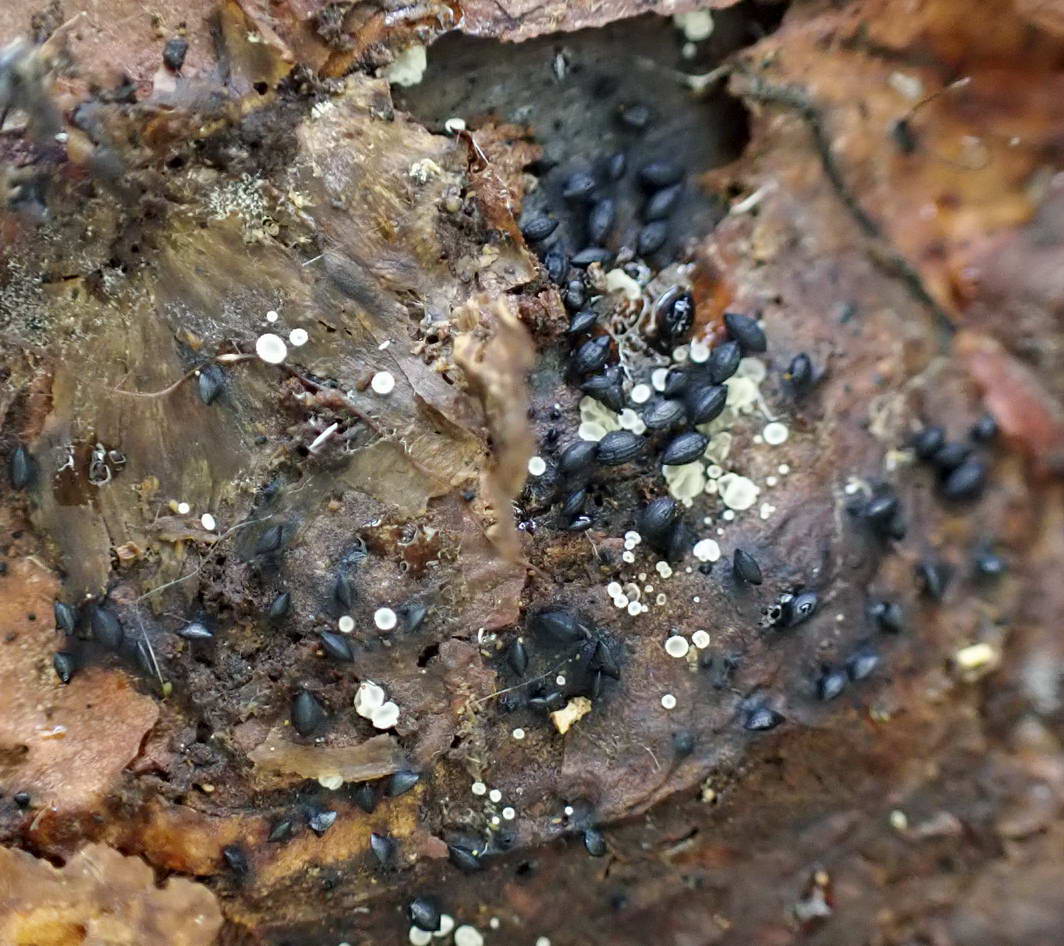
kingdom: Fungi
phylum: Ascomycota
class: Dothideomycetes
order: Mytilinidiales
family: Mytilinidiaceae
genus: Mytilinidion
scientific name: Mytilinidion rhenanum
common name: almindelig kulmusling
